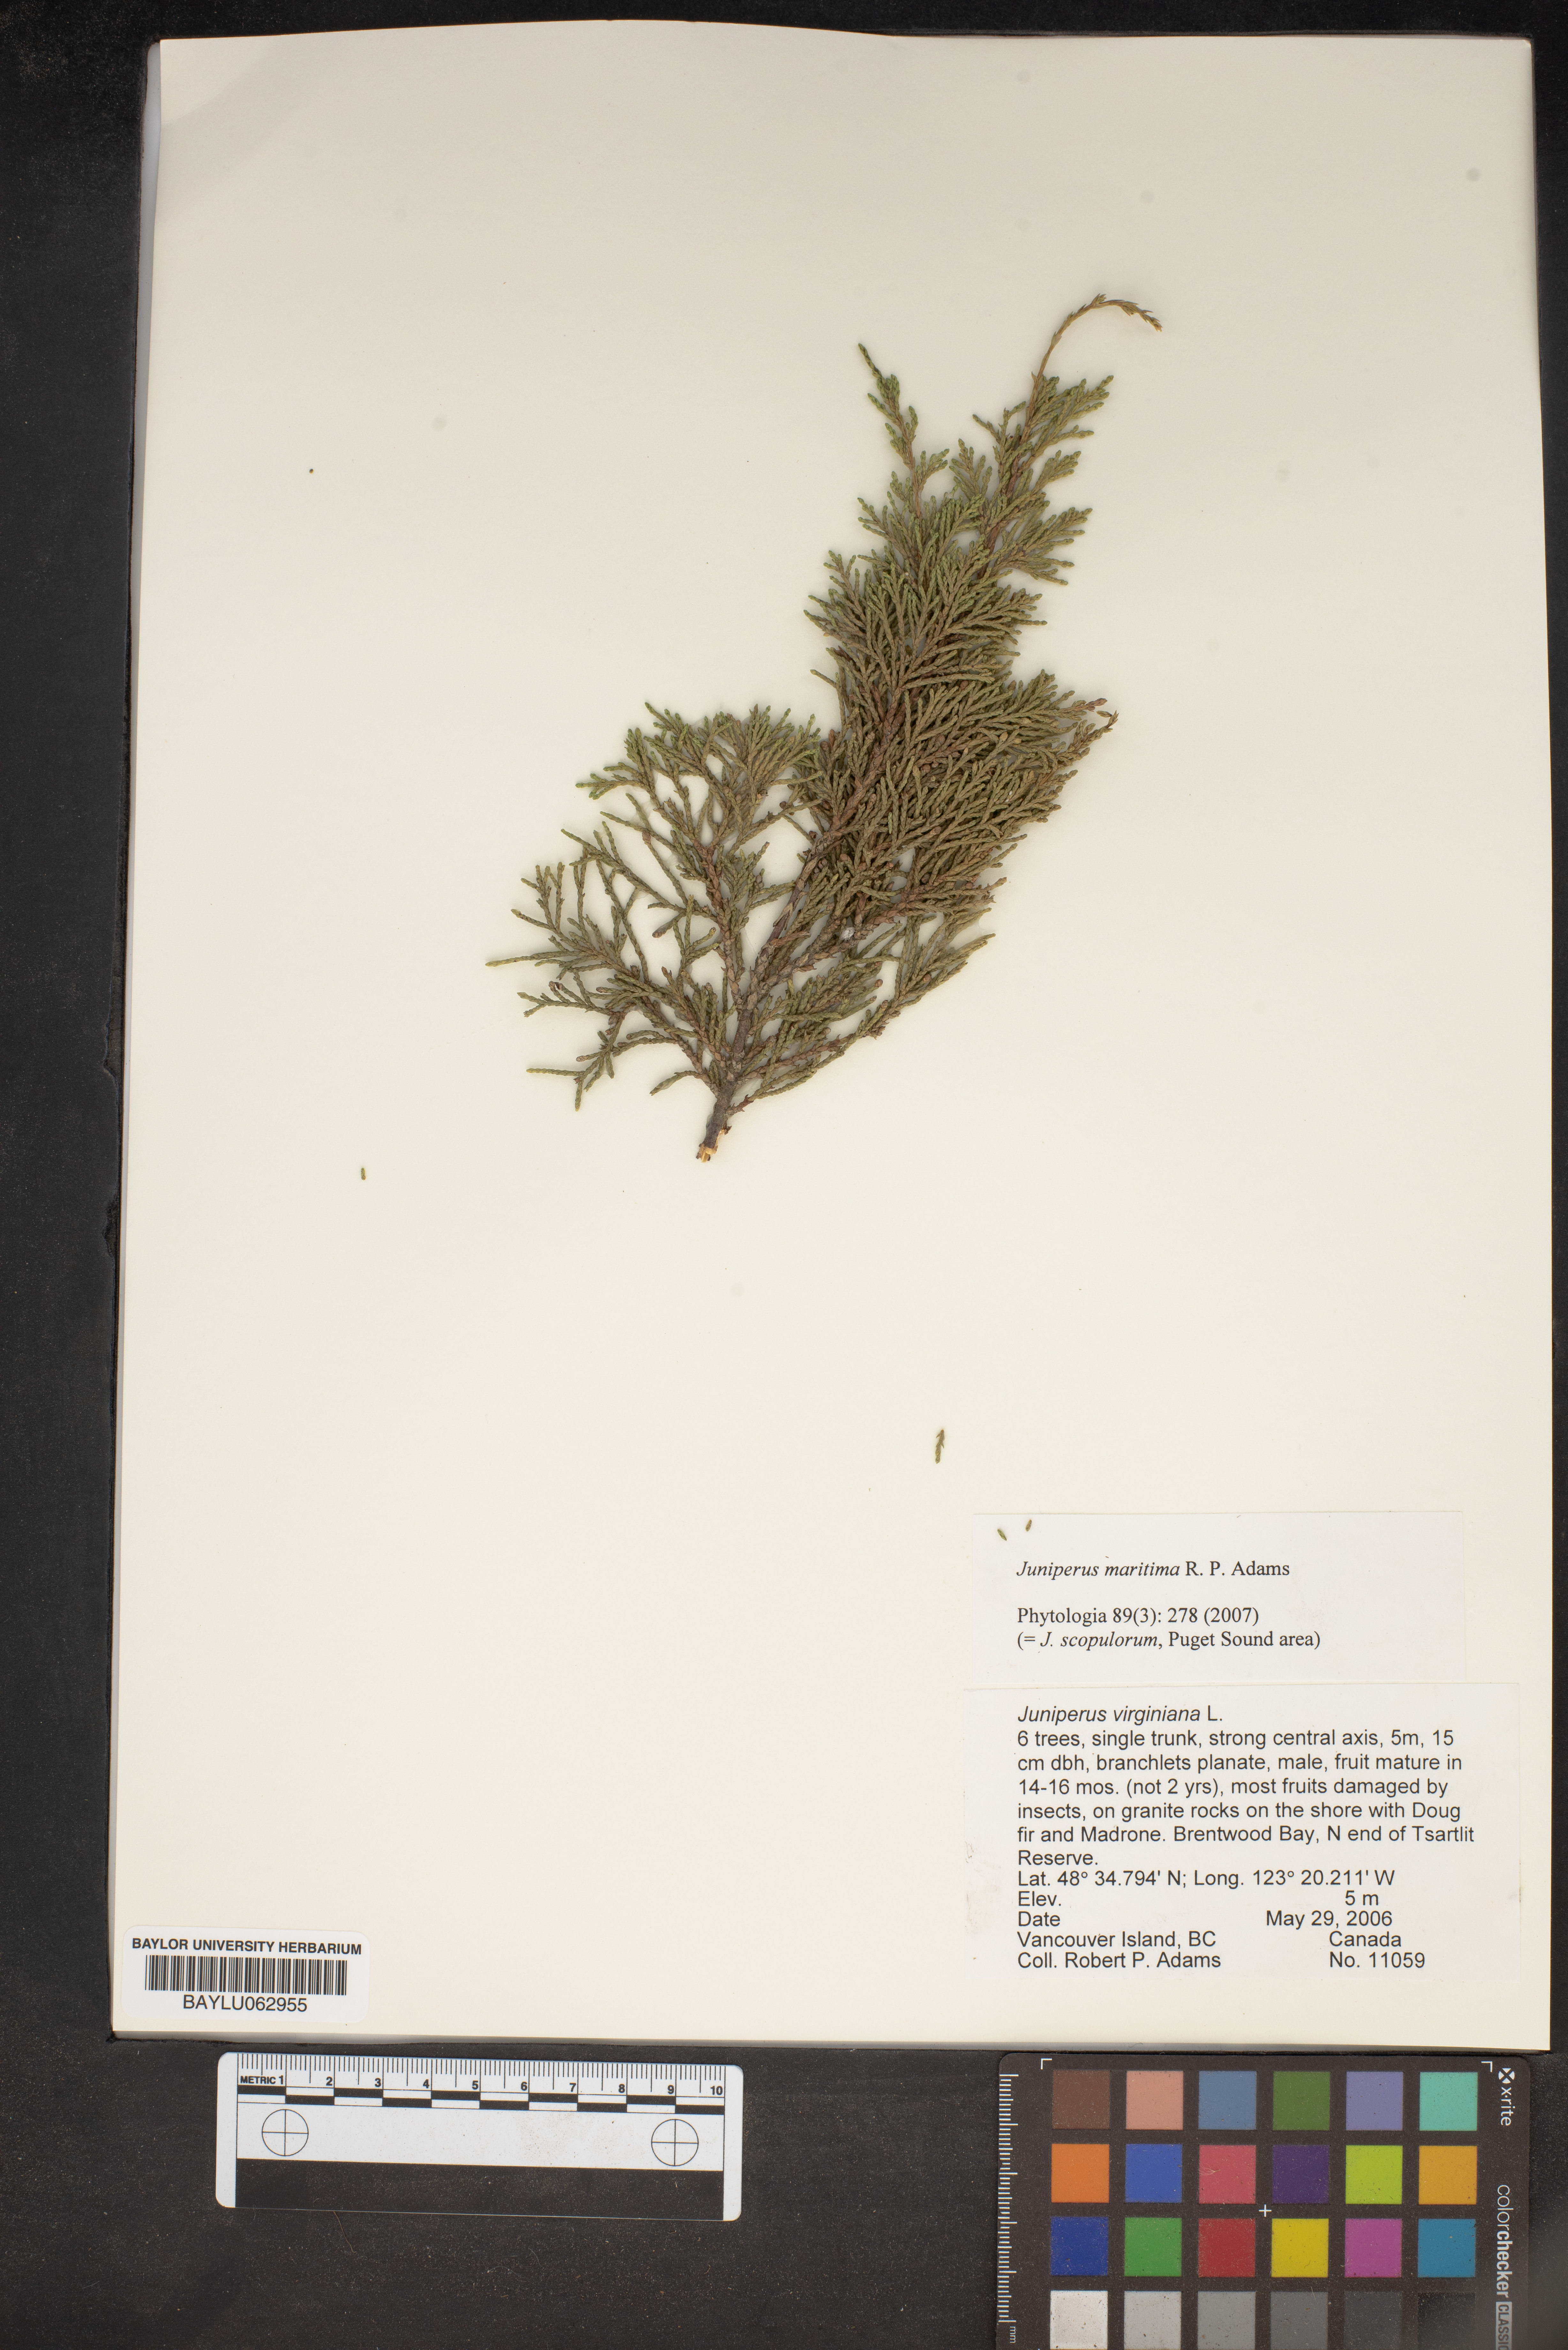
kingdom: Plantae
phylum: Tracheophyta
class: Pinopsida
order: Pinales
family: Cupressaceae
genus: Juniperus
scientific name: Juniperus scopulorum
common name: Rocky mountain juniper
